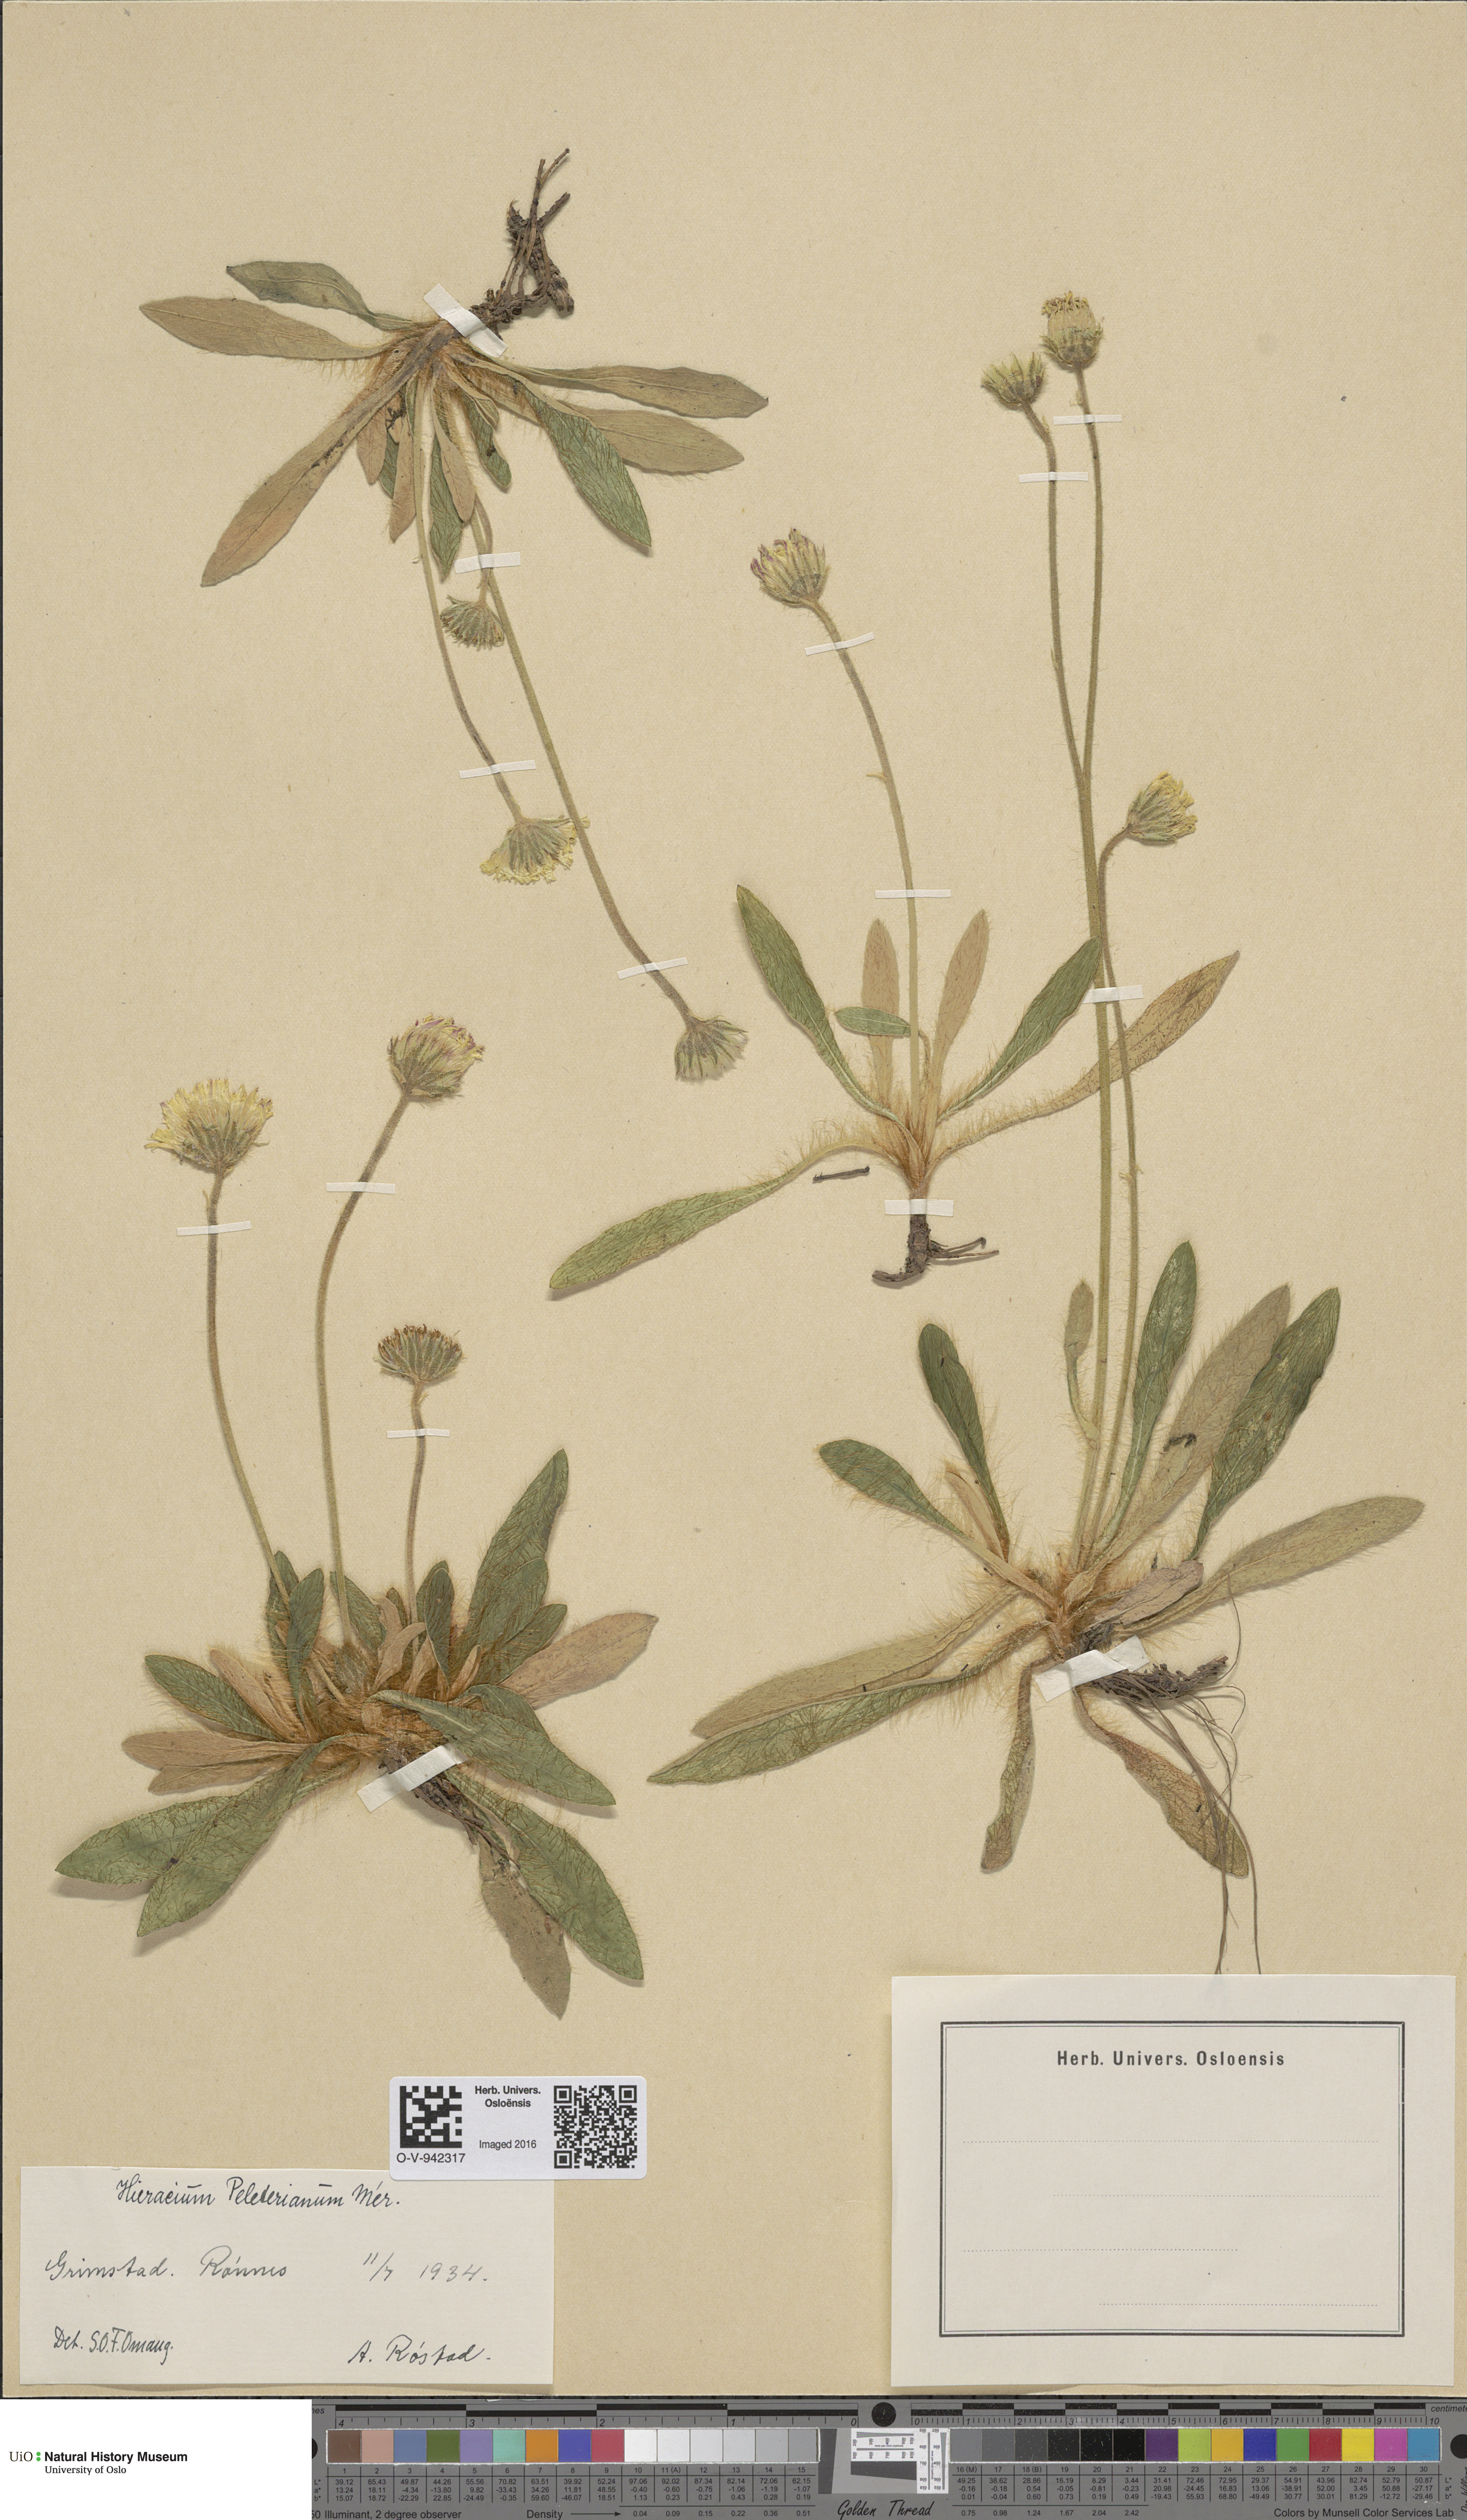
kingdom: Plantae
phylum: Tracheophyta
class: Magnoliopsida
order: Asterales
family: Asteraceae
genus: Pilosella
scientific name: Pilosella peleteriana
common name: Shaggy mouse-ear-hawkweed
